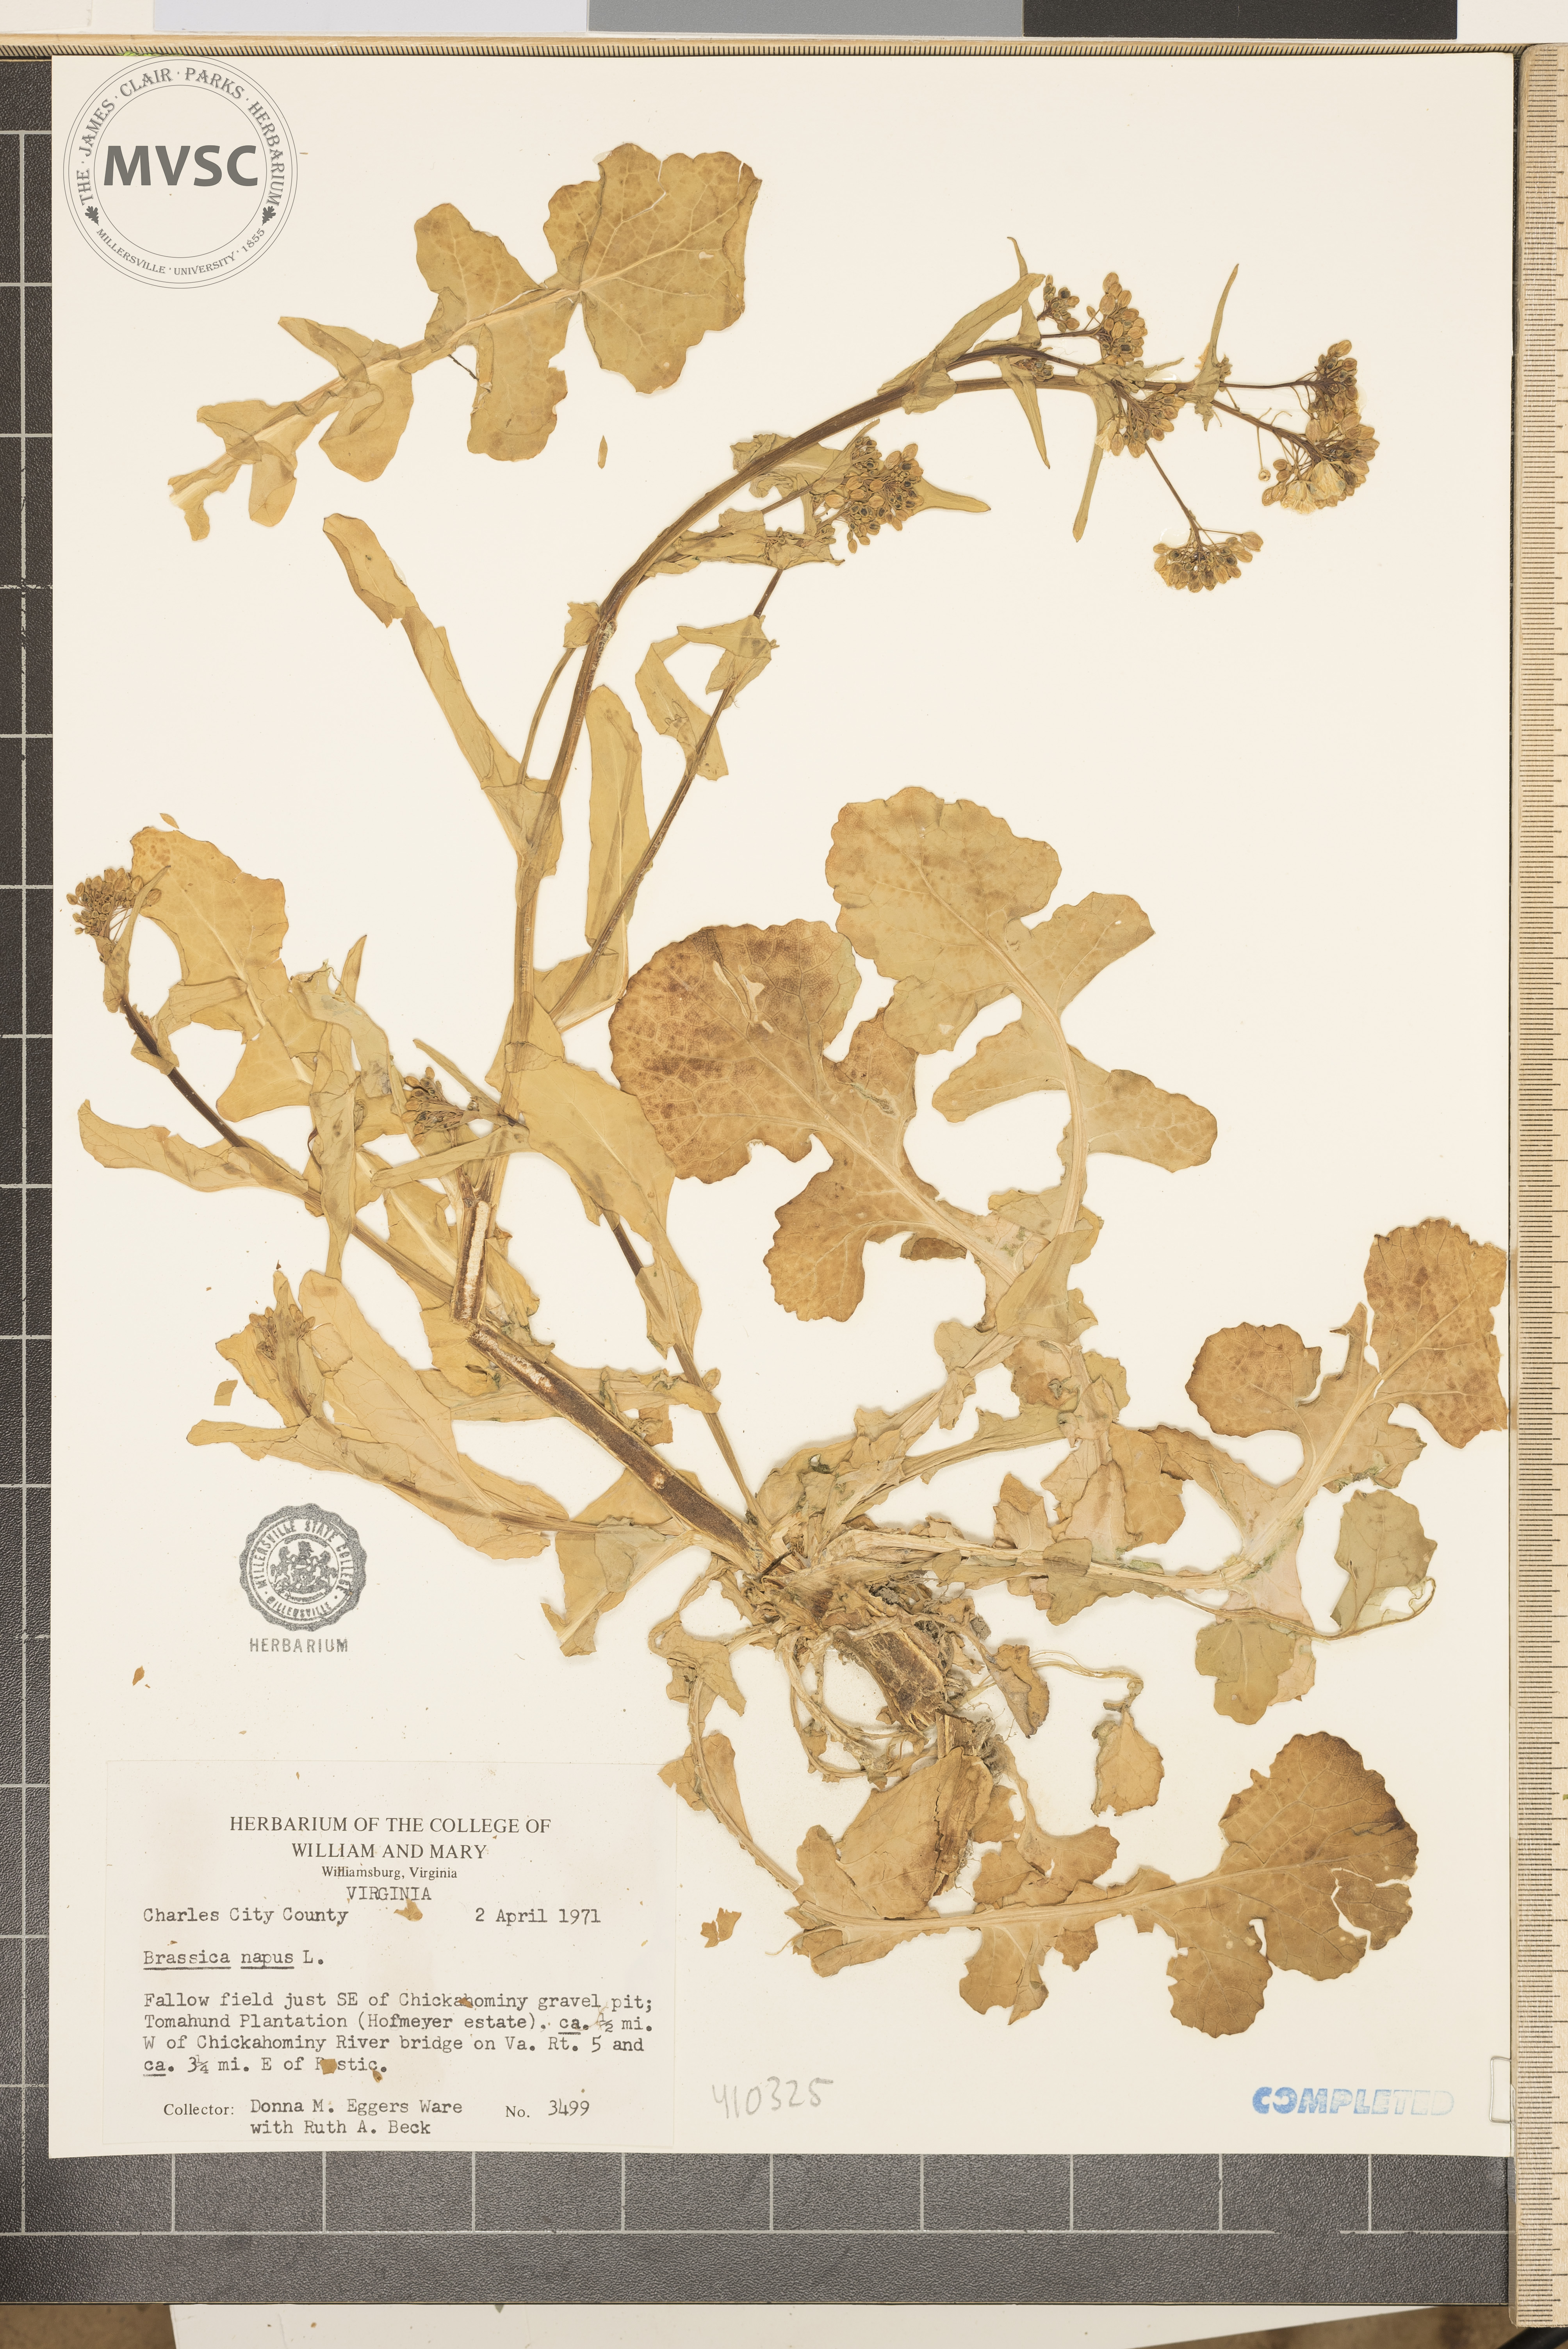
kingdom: Plantae
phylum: Tracheophyta
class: Magnoliopsida
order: Brassicales
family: Brassicaceae
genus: Brassica
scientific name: Brassica napus
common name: Rape
